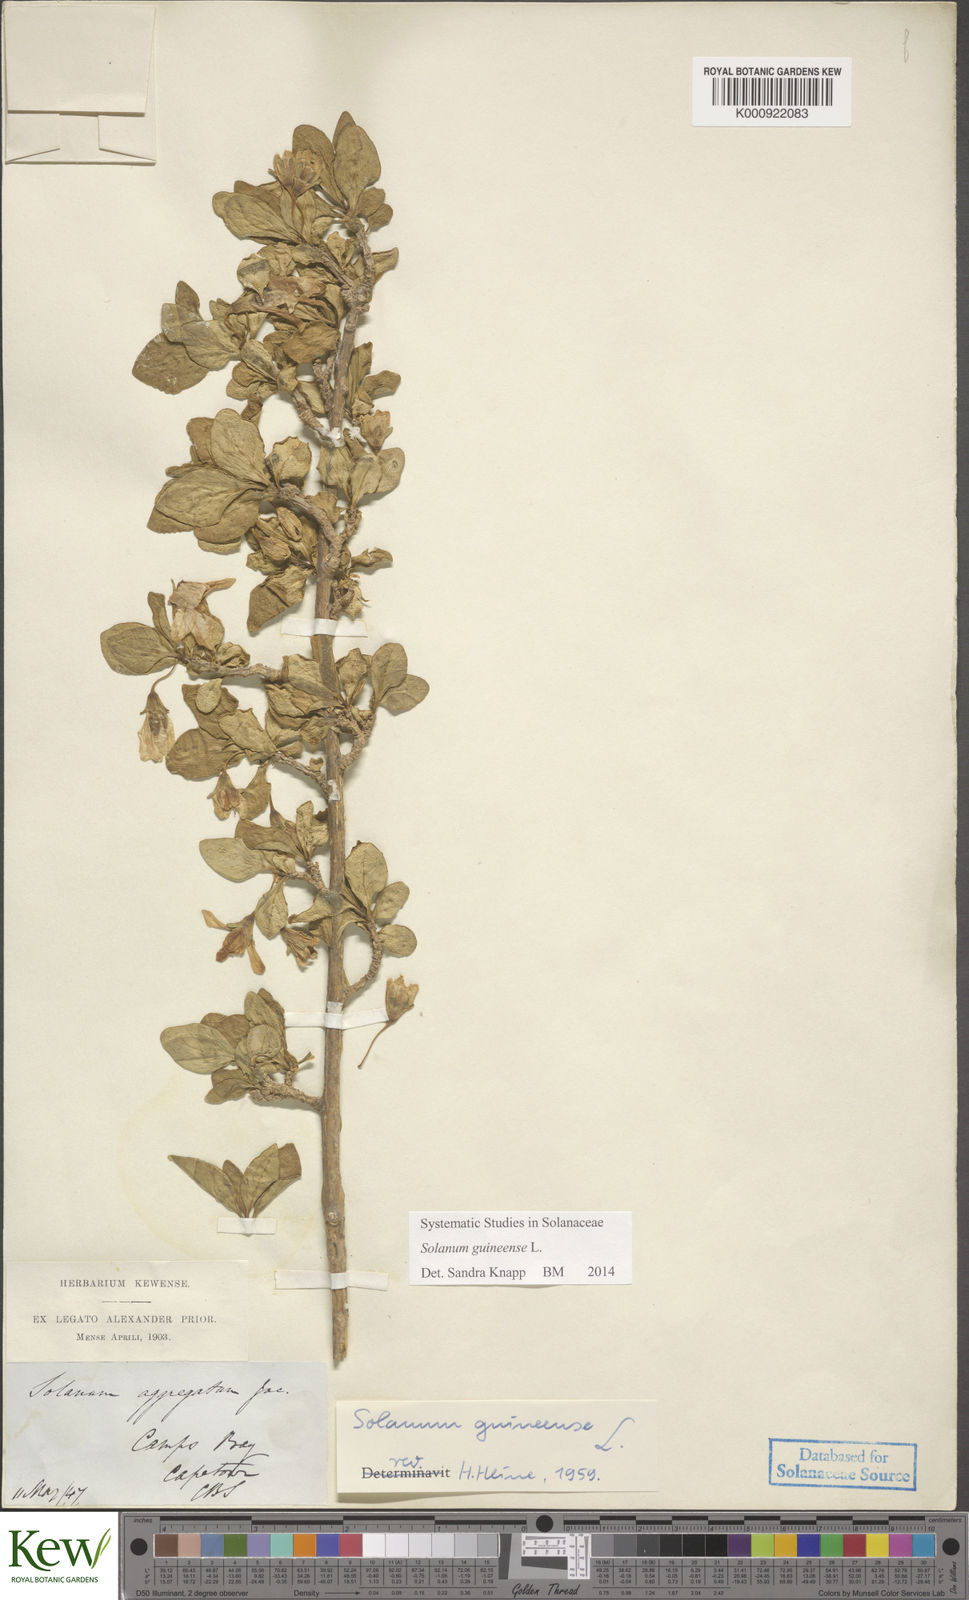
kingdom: Plantae
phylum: Tracheophyta
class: Magnoliopsida
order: Solanales
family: Solanaceae
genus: Solanum
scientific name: Solanum guineense
